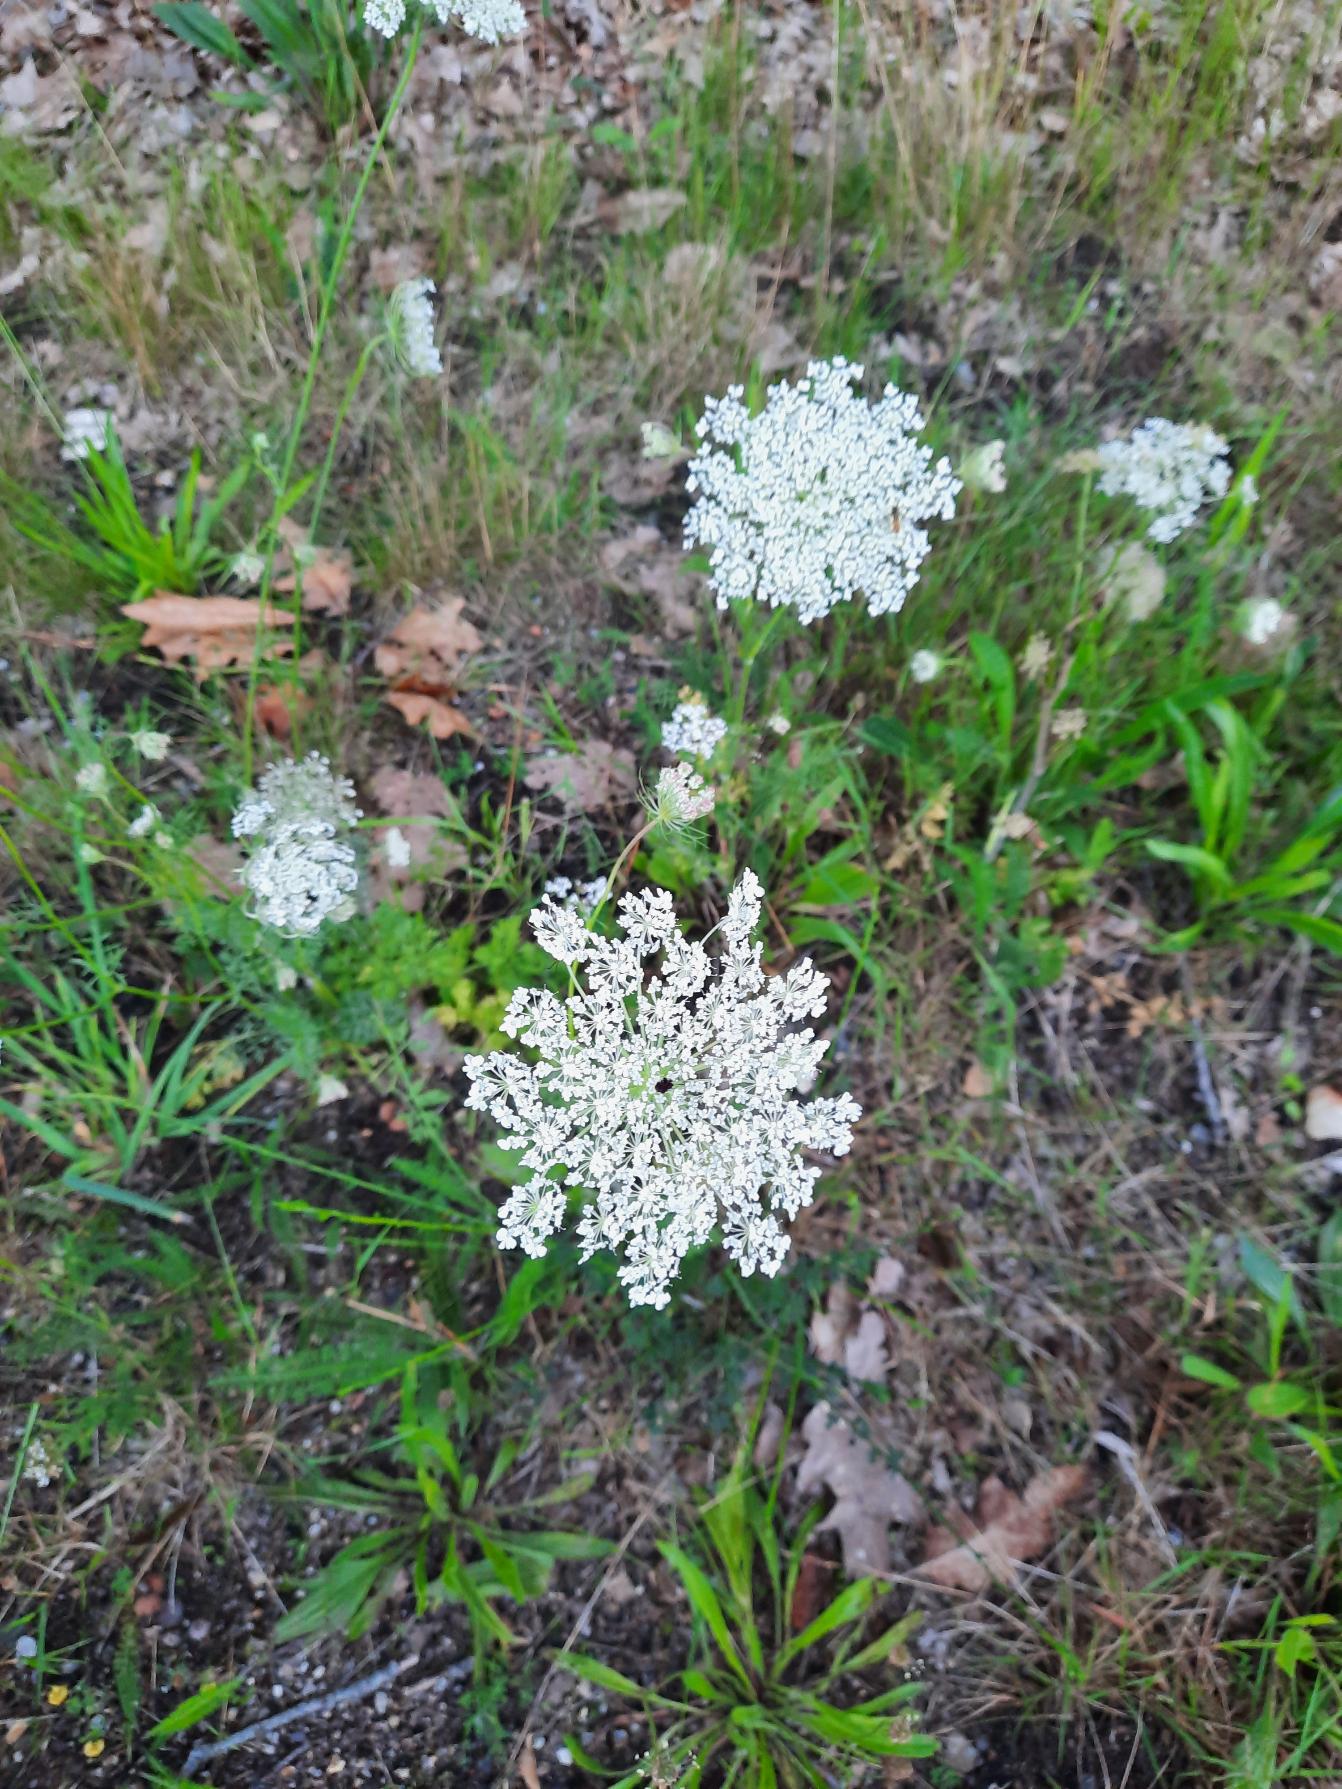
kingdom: Plantae
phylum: Tracheophyta
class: Magnoliopsida
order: Apiales
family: Apiaceae
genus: Daucus
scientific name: Daucus carota
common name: Gulerod
